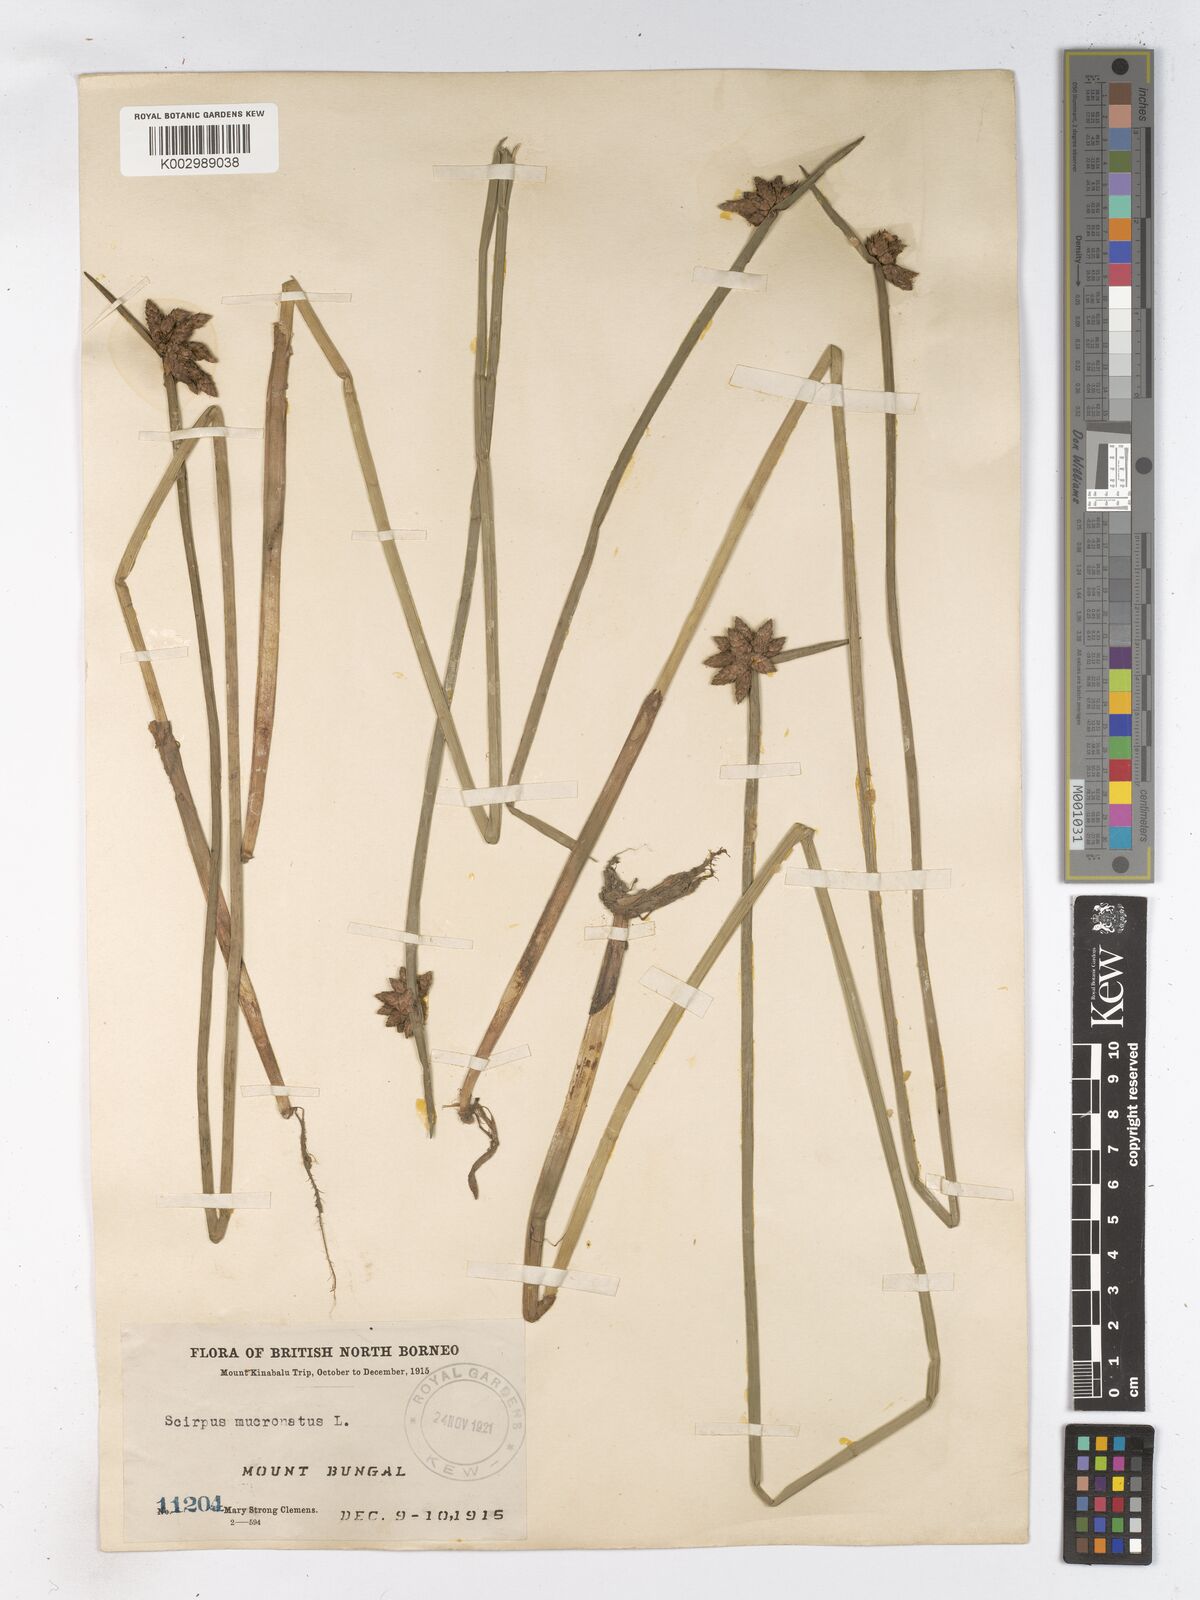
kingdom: Plantae
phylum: Tracheophyta
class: Liliopsida
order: Poales
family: Cyperaceae
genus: Schoenoplectiella
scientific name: Schoenoplectiella mucronata
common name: Bog bulrush
